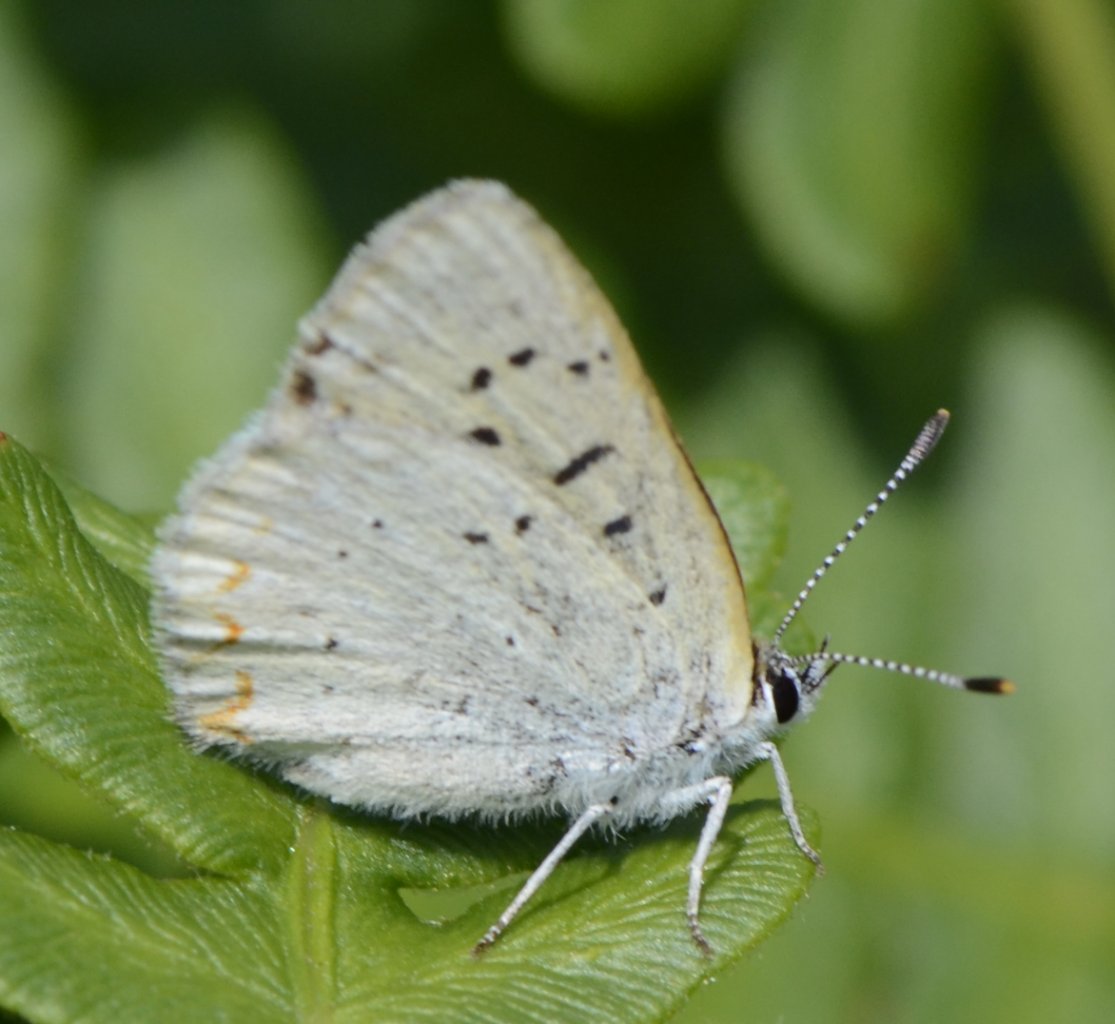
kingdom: Animalia
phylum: Arthropoda
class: Insecta
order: Lepidoptera
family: Sesiidae
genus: Sesia
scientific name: Sesia Lycaena epixanthe
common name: Bog Copper
